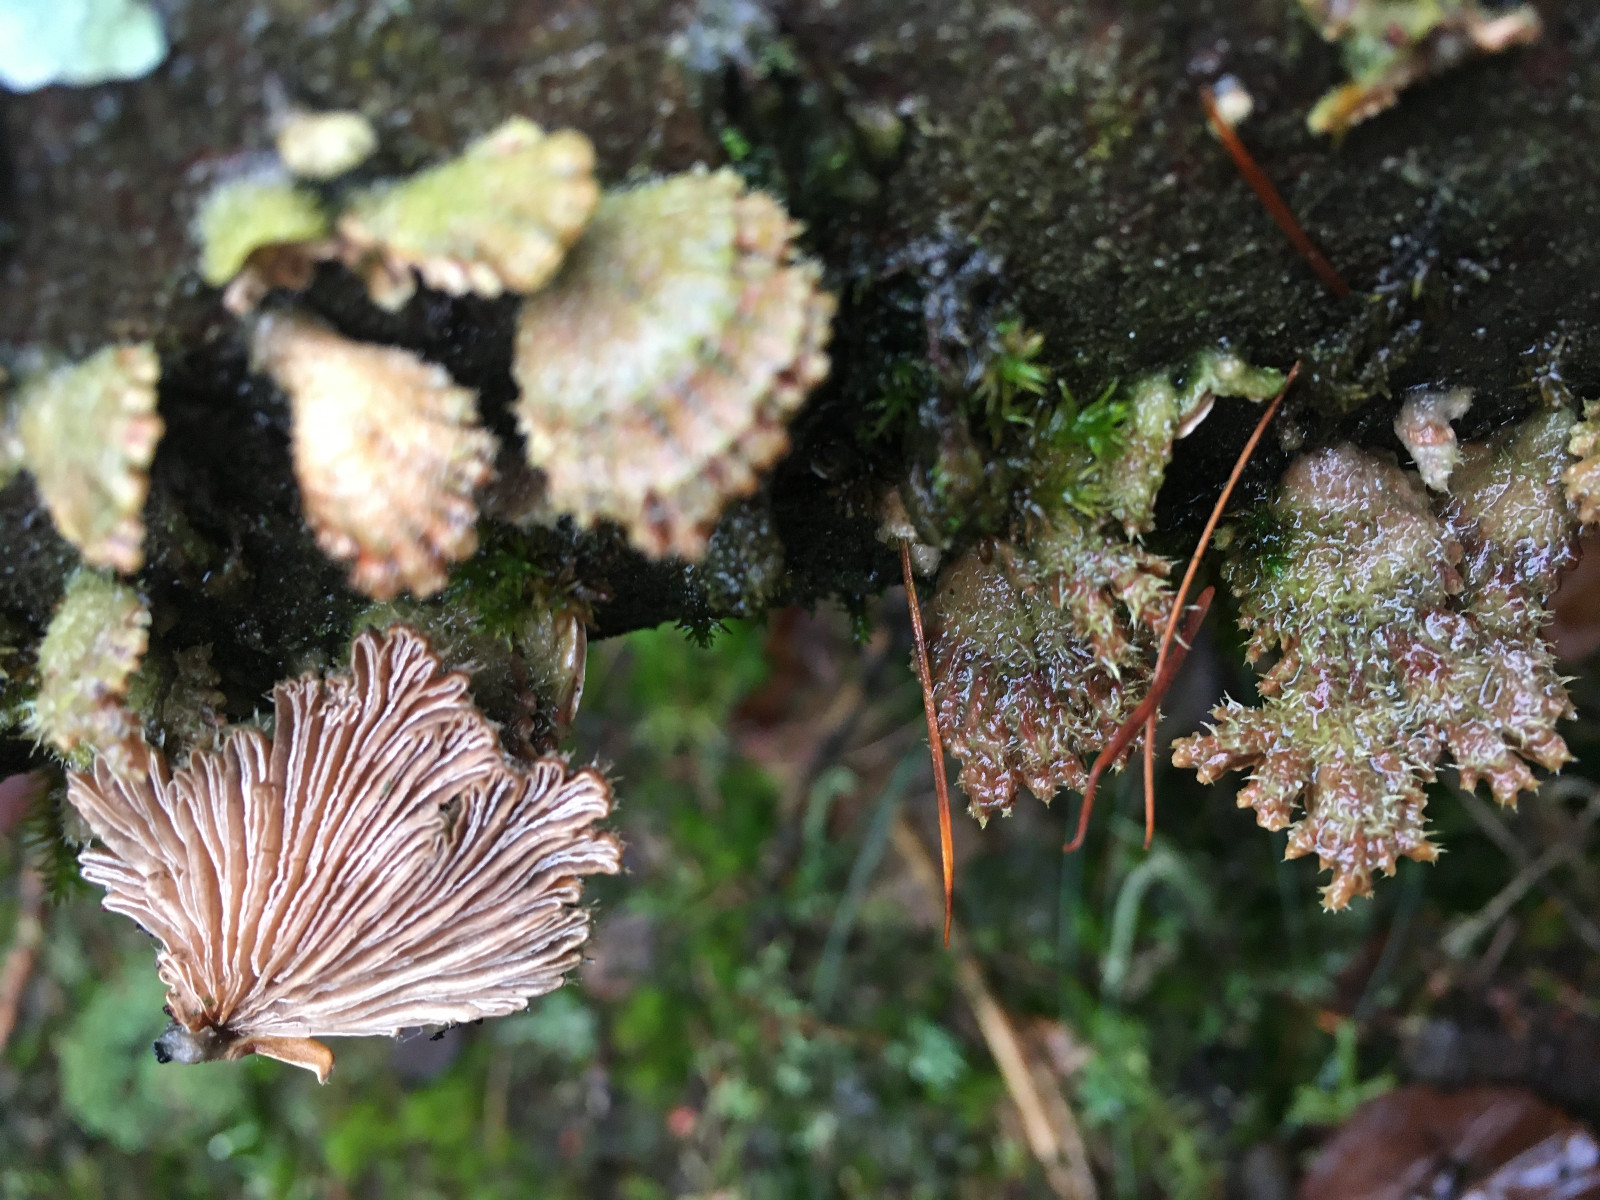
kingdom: Fungi
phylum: Basidiomycota
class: Agaricomycetes
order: Agaricales
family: Schizophyllaceae
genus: Schizophyllum
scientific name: Schizophyllum commune
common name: kløvblad
